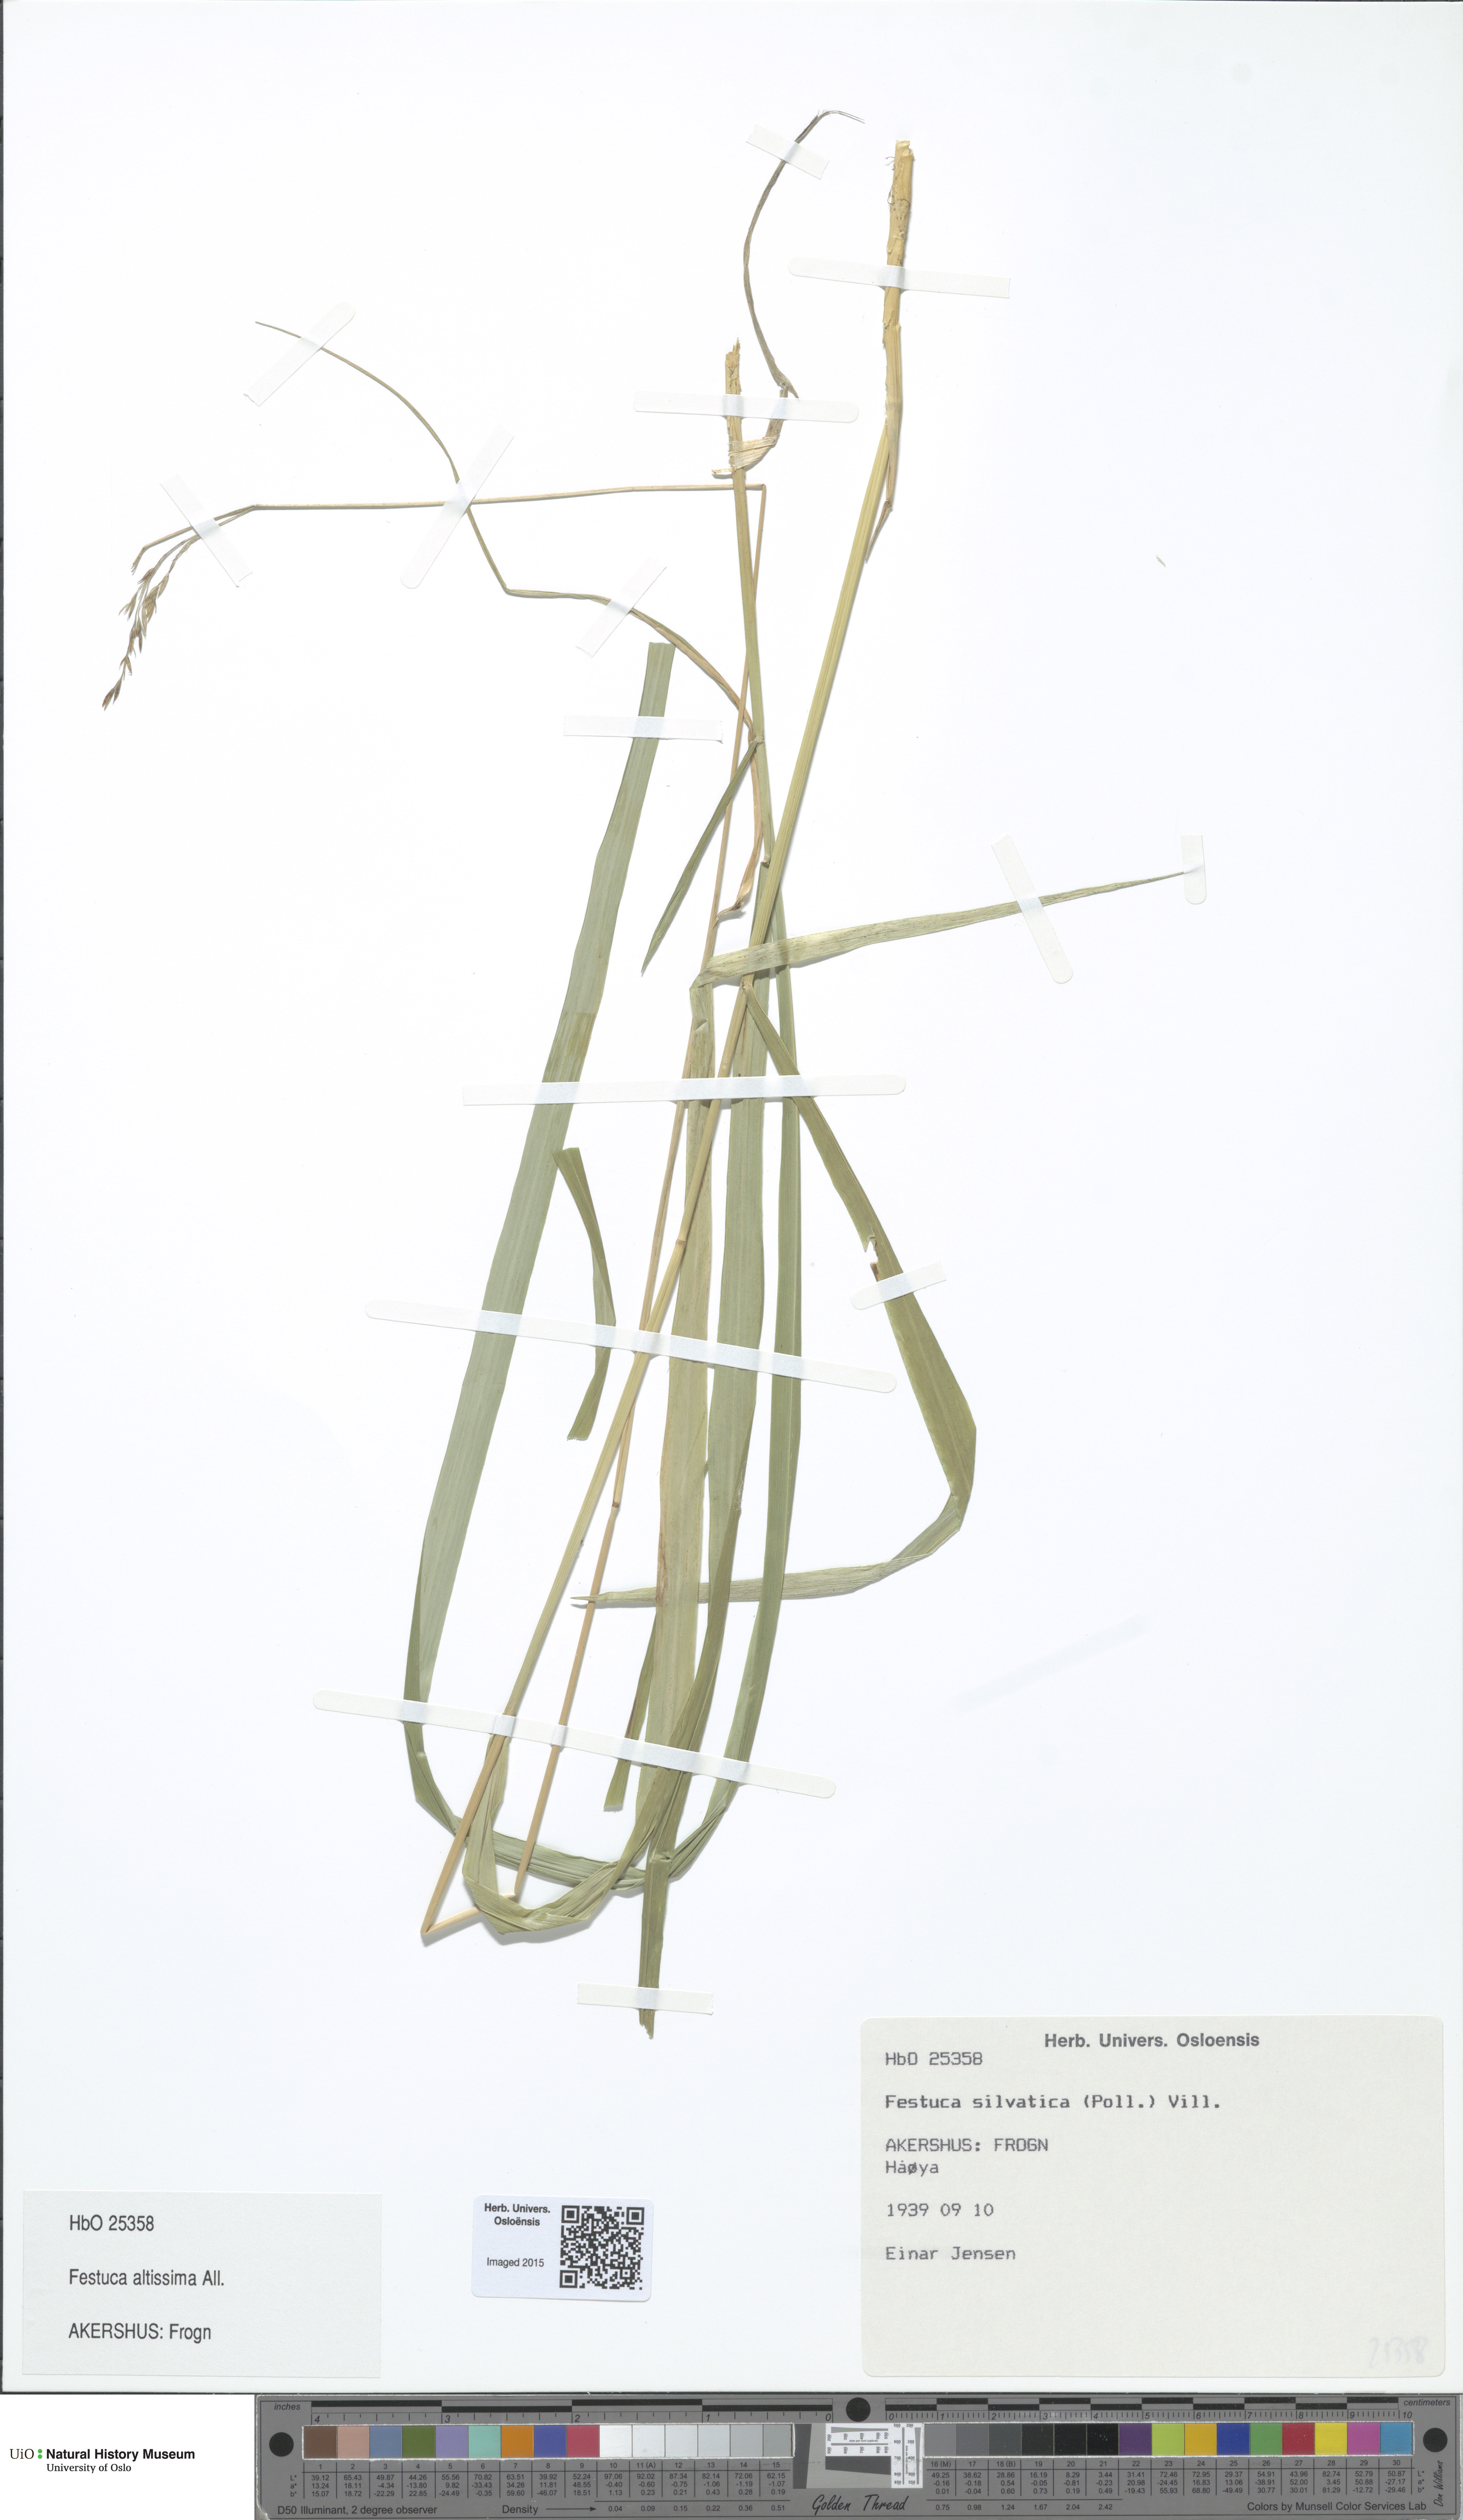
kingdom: Plantae
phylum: Tracheophyta
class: Liliopsida
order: Poales
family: Poaceae
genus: Festuca
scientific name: Festuca altissima
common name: Wood fescue
